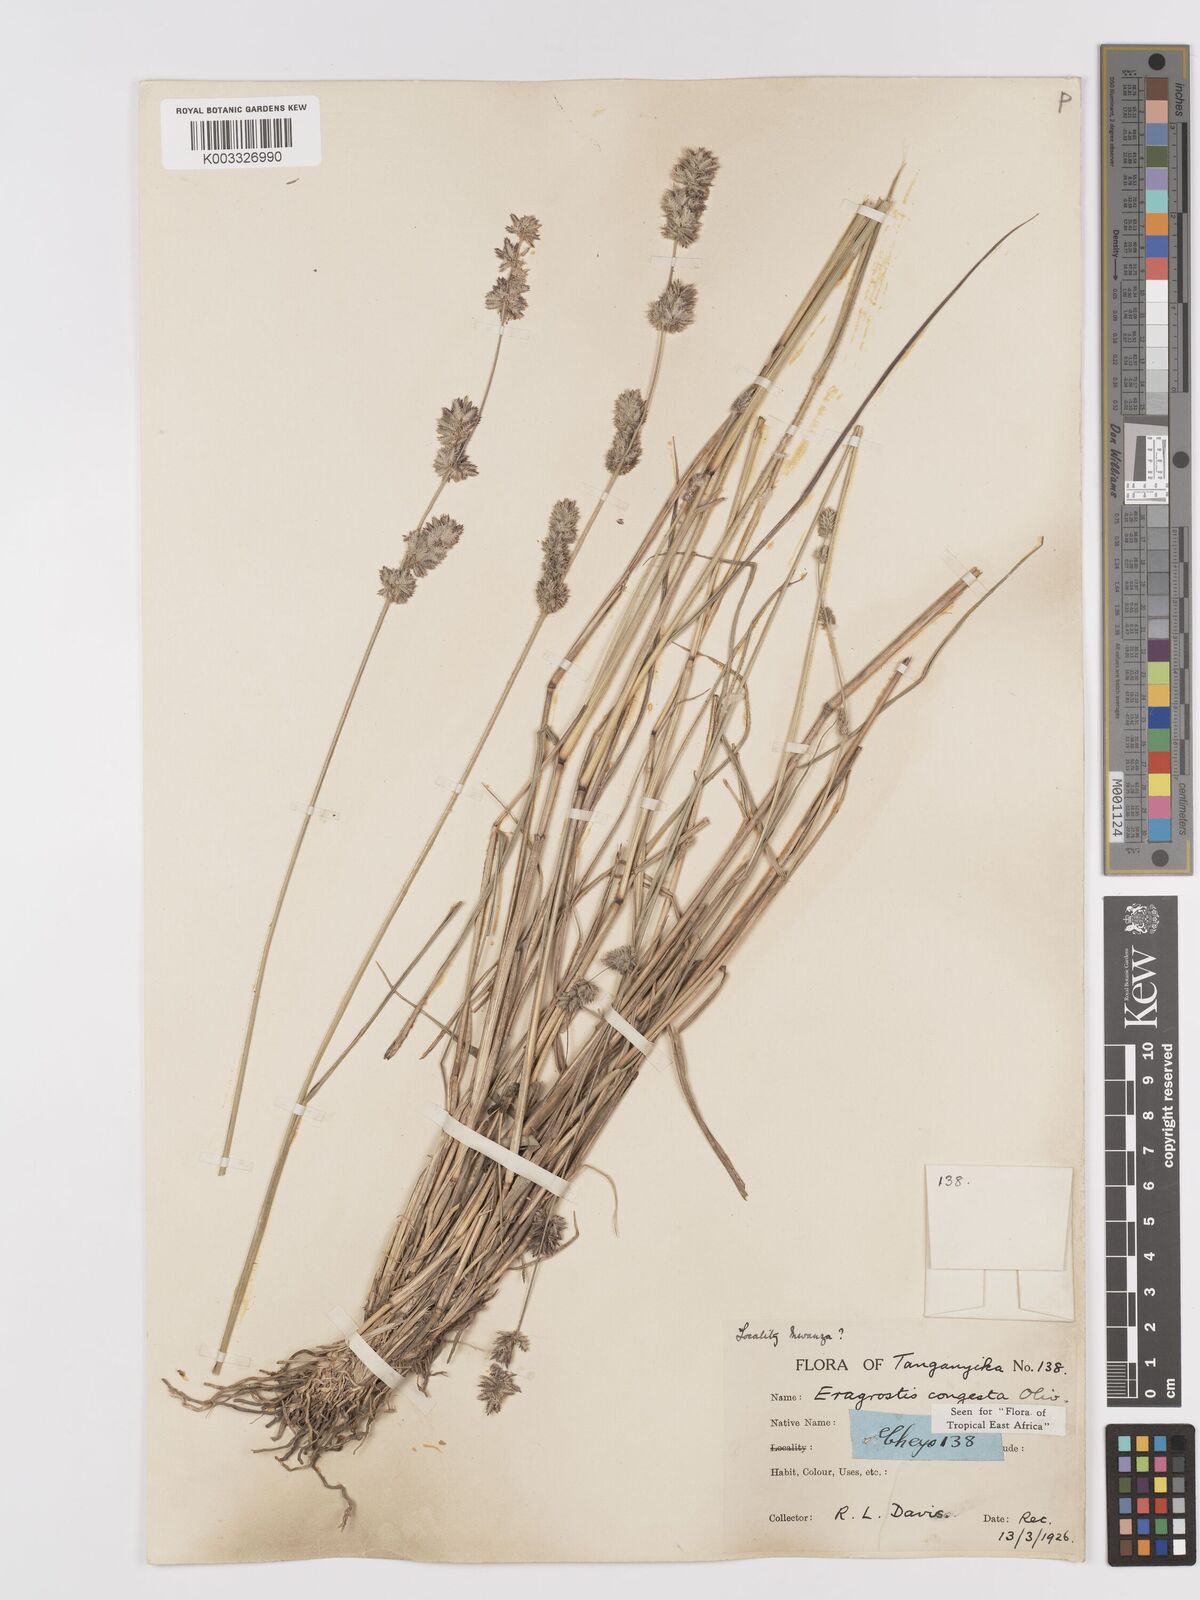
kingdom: Plantae
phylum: Tracheophyta
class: Liliopsida
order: Poales
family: Poaceae
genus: Eragrostis
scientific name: Eragrostis congesta
